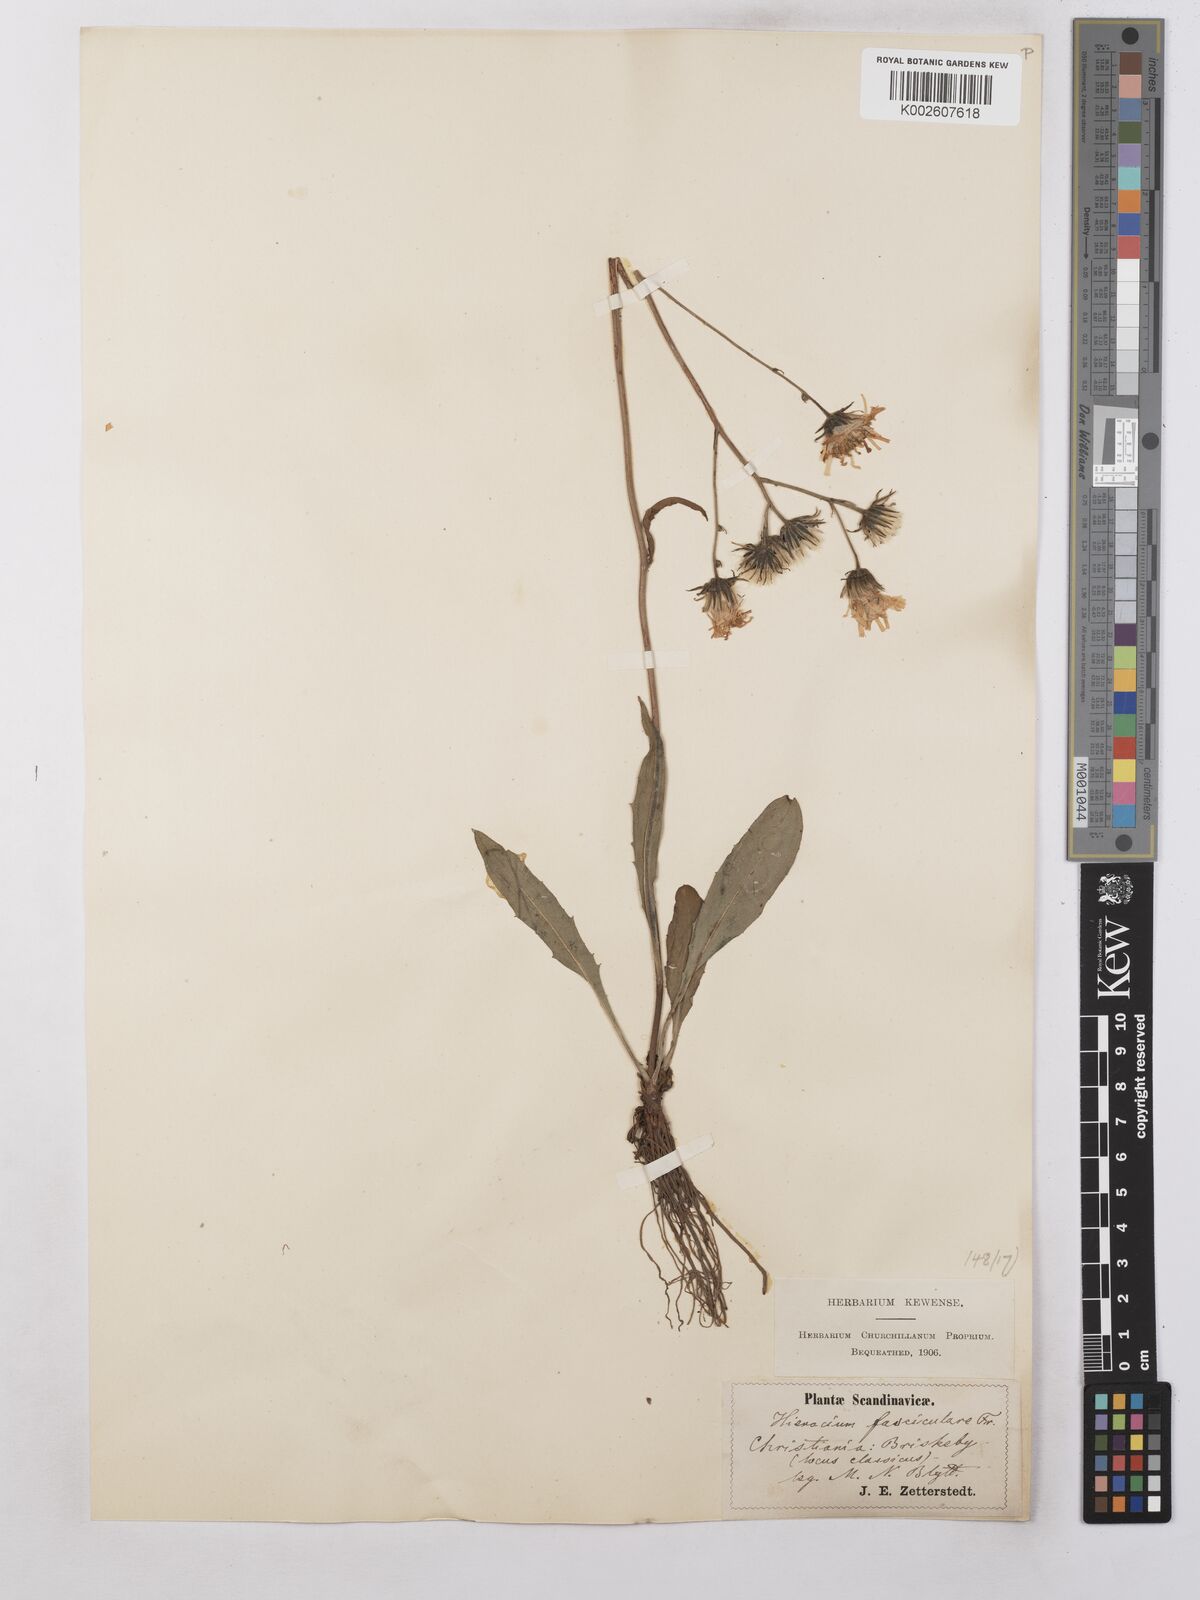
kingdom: Plantae
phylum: Tracheophyta
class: Magnoliopsida
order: Asterales
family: Asteraceae
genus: Hieracium
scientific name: Hieracium subramosum
